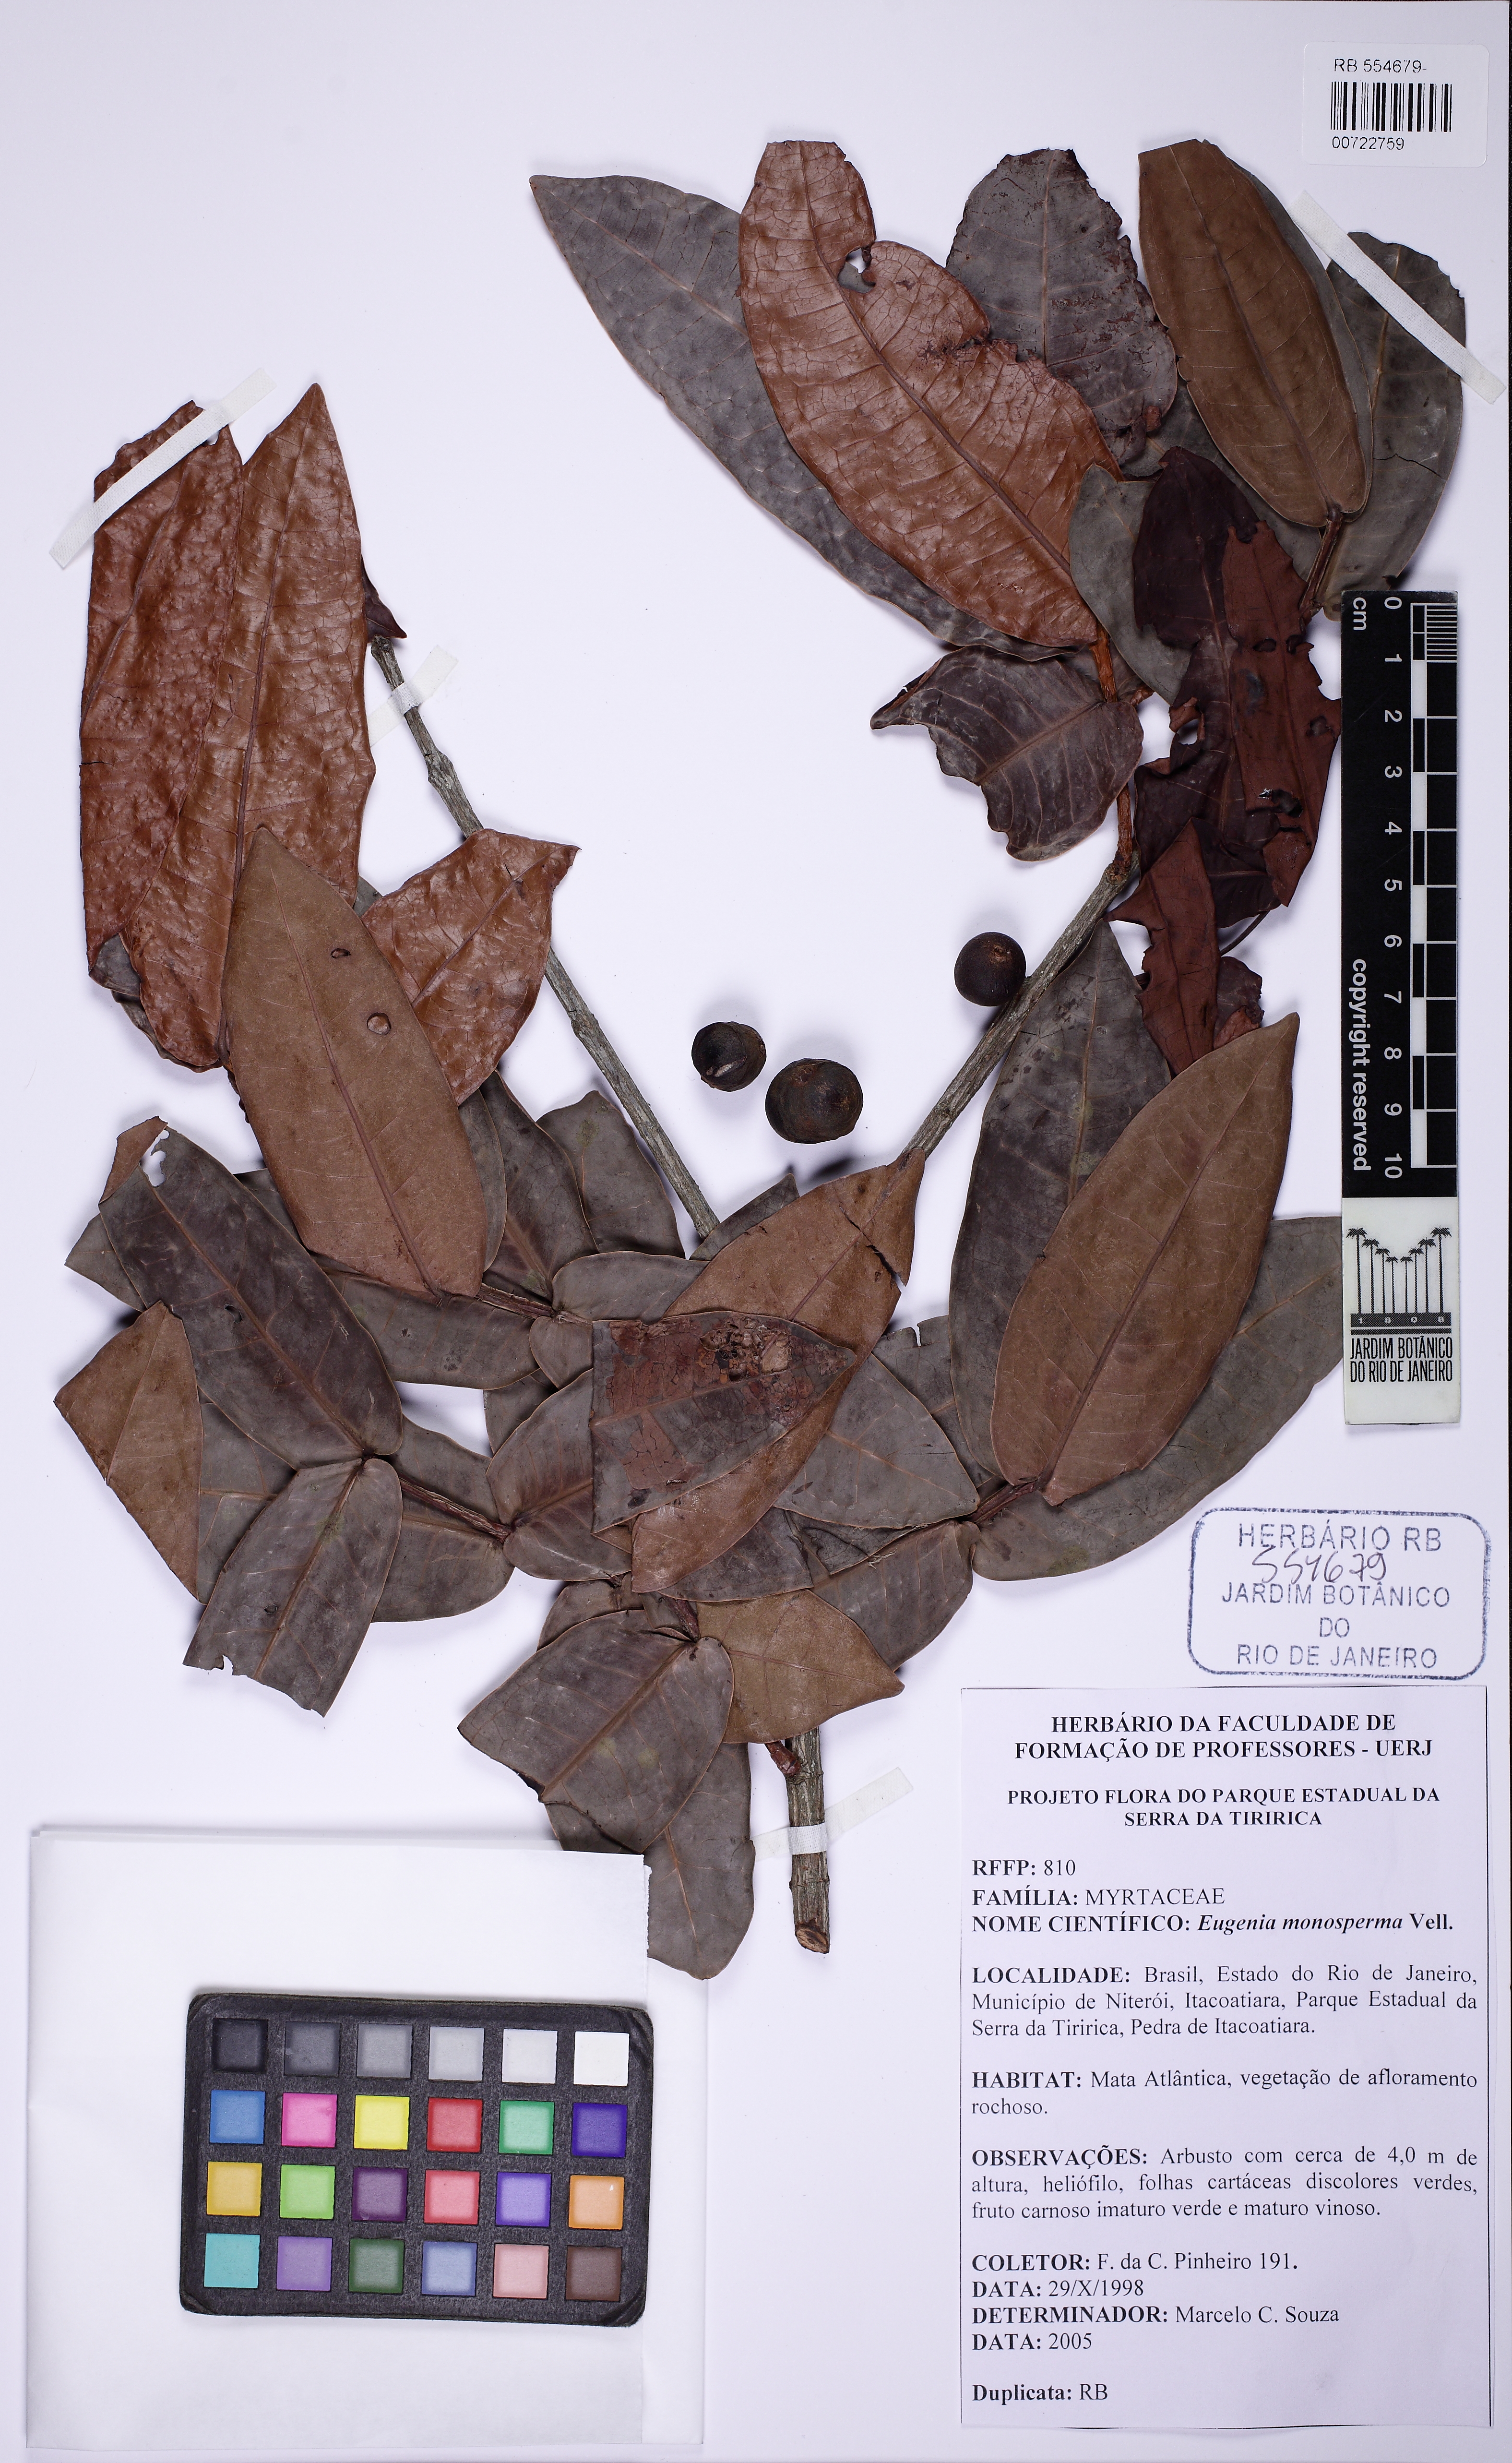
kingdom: Plantae
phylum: Tracheophyta
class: Magnoliopsida
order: Myrtales
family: Myrtaceae
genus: Eugenia
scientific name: Eugenia monosperma
